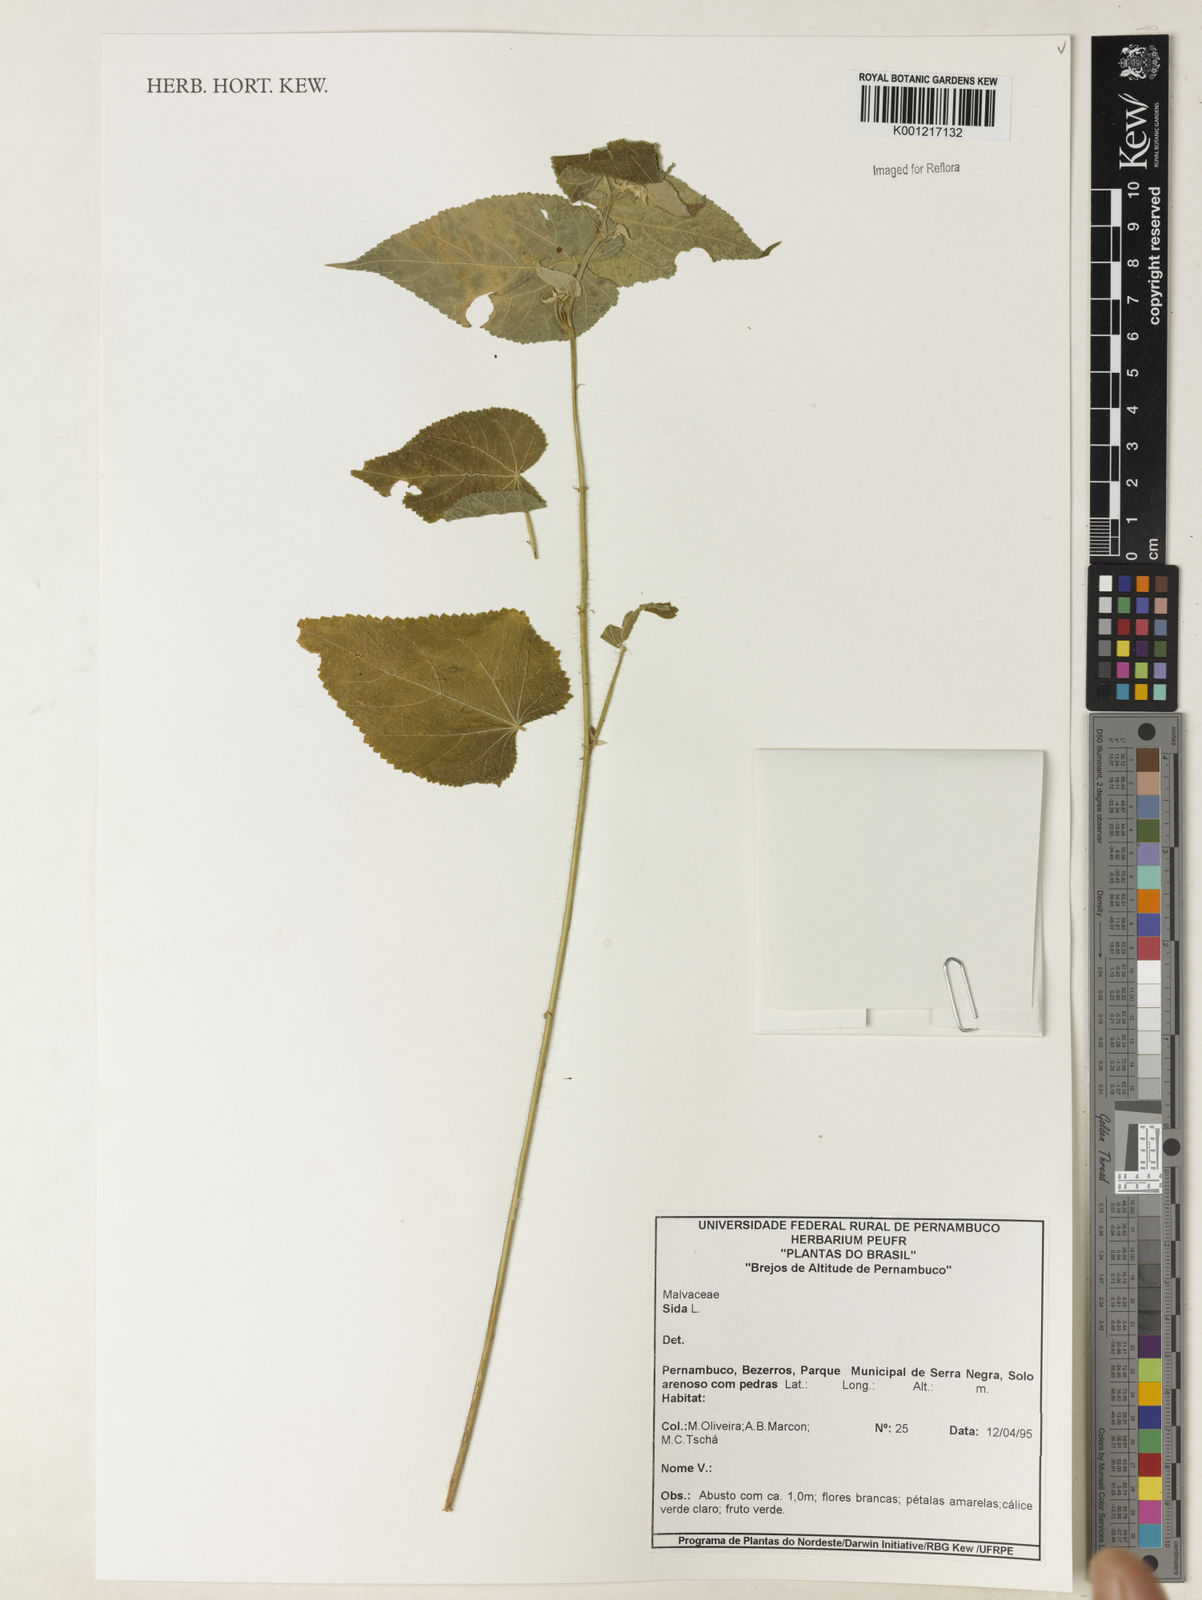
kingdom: Plantae
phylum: Tracheophyta
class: Magnoliopsida
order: Malvales
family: Malvaceae
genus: Sida
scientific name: Sida
